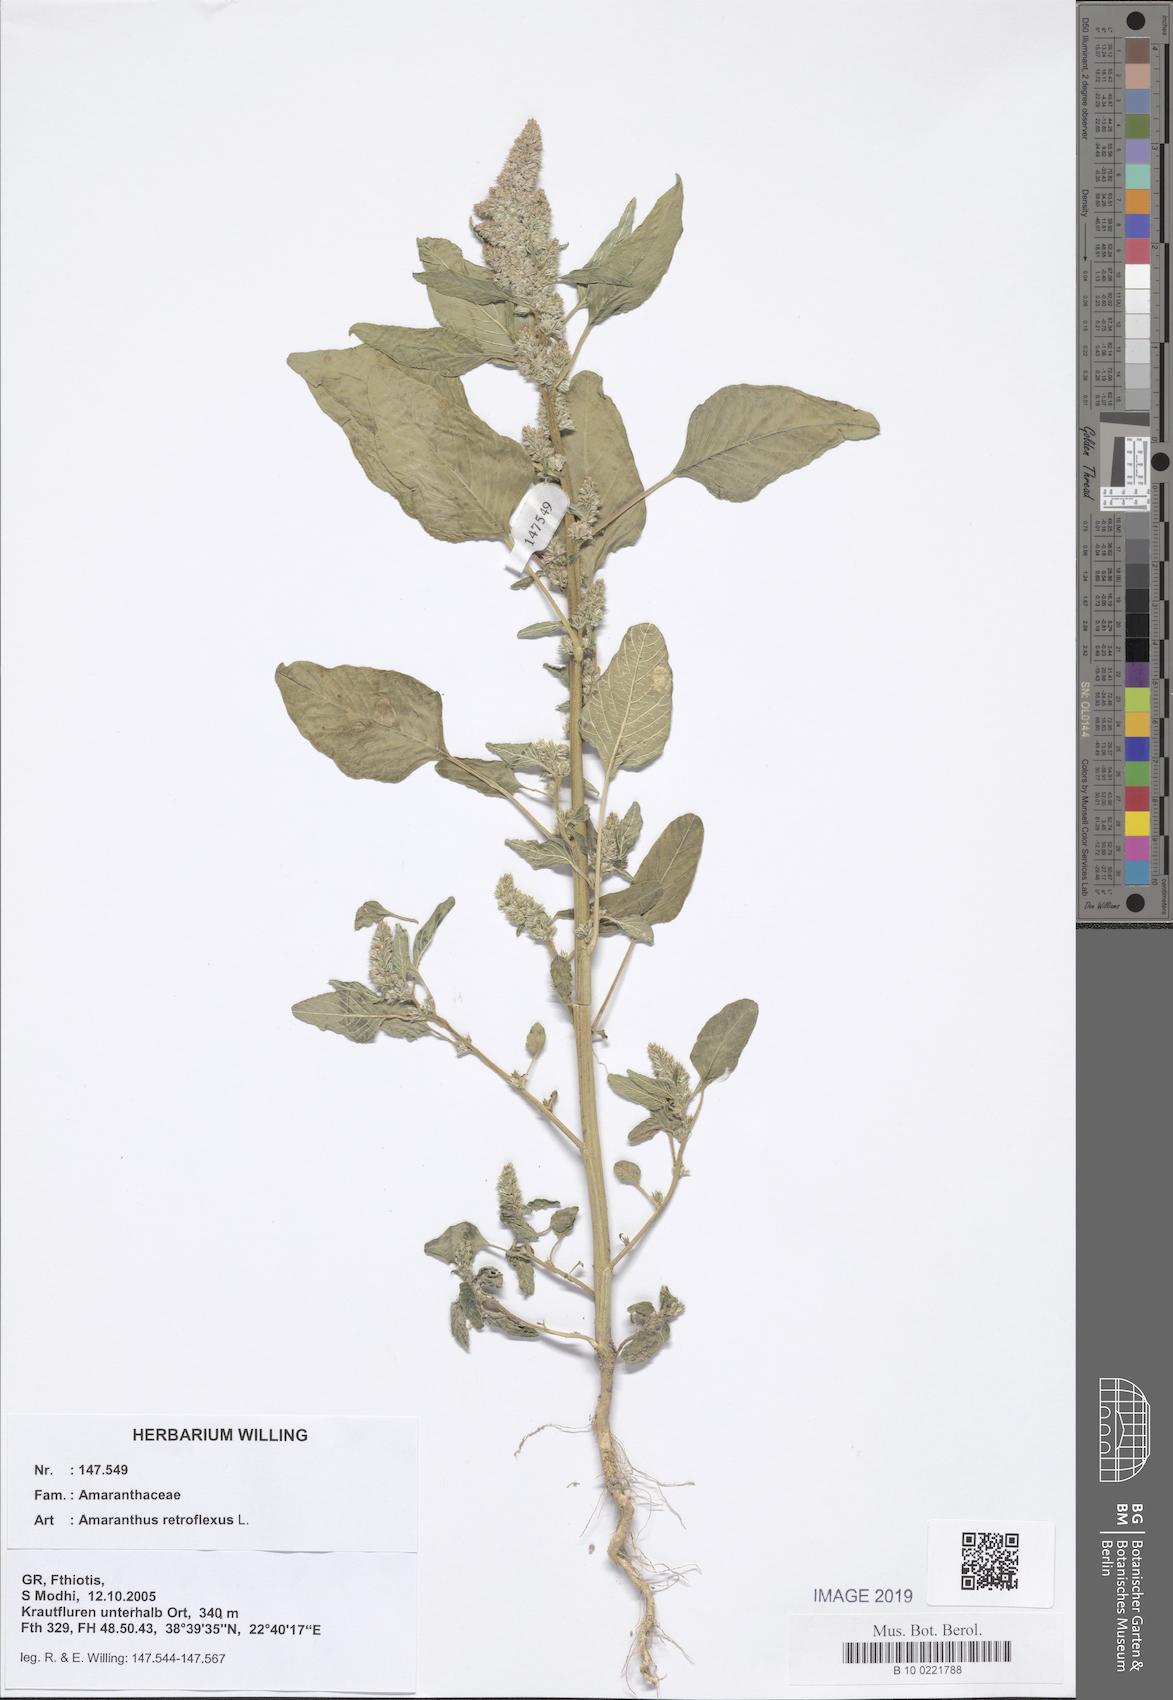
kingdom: Plantae
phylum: Tracheophyta
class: Magnoliopsida
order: Caryophyllales
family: Amaranthaceae
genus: Amaranthus
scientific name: Amaranthus retroflexus
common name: Redroot amaranth
